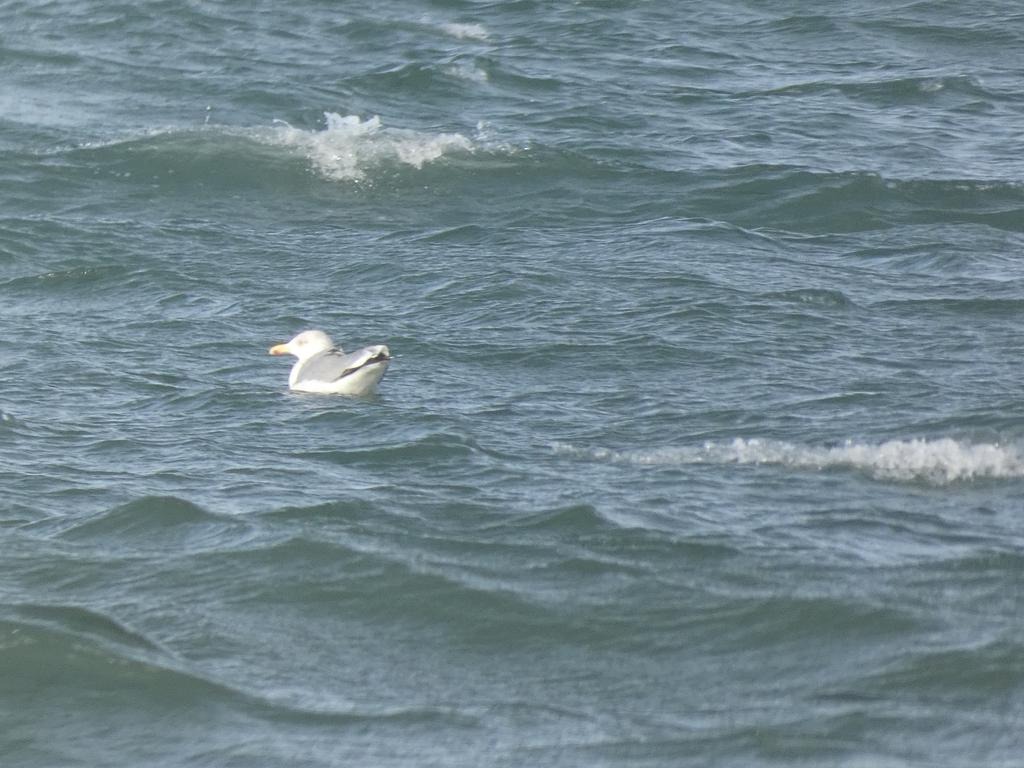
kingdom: Animalia
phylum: Chordata
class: Aves
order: Charadriiformes
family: Laridae
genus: Larus
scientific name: Larus argentatus
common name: Sølvmåge
